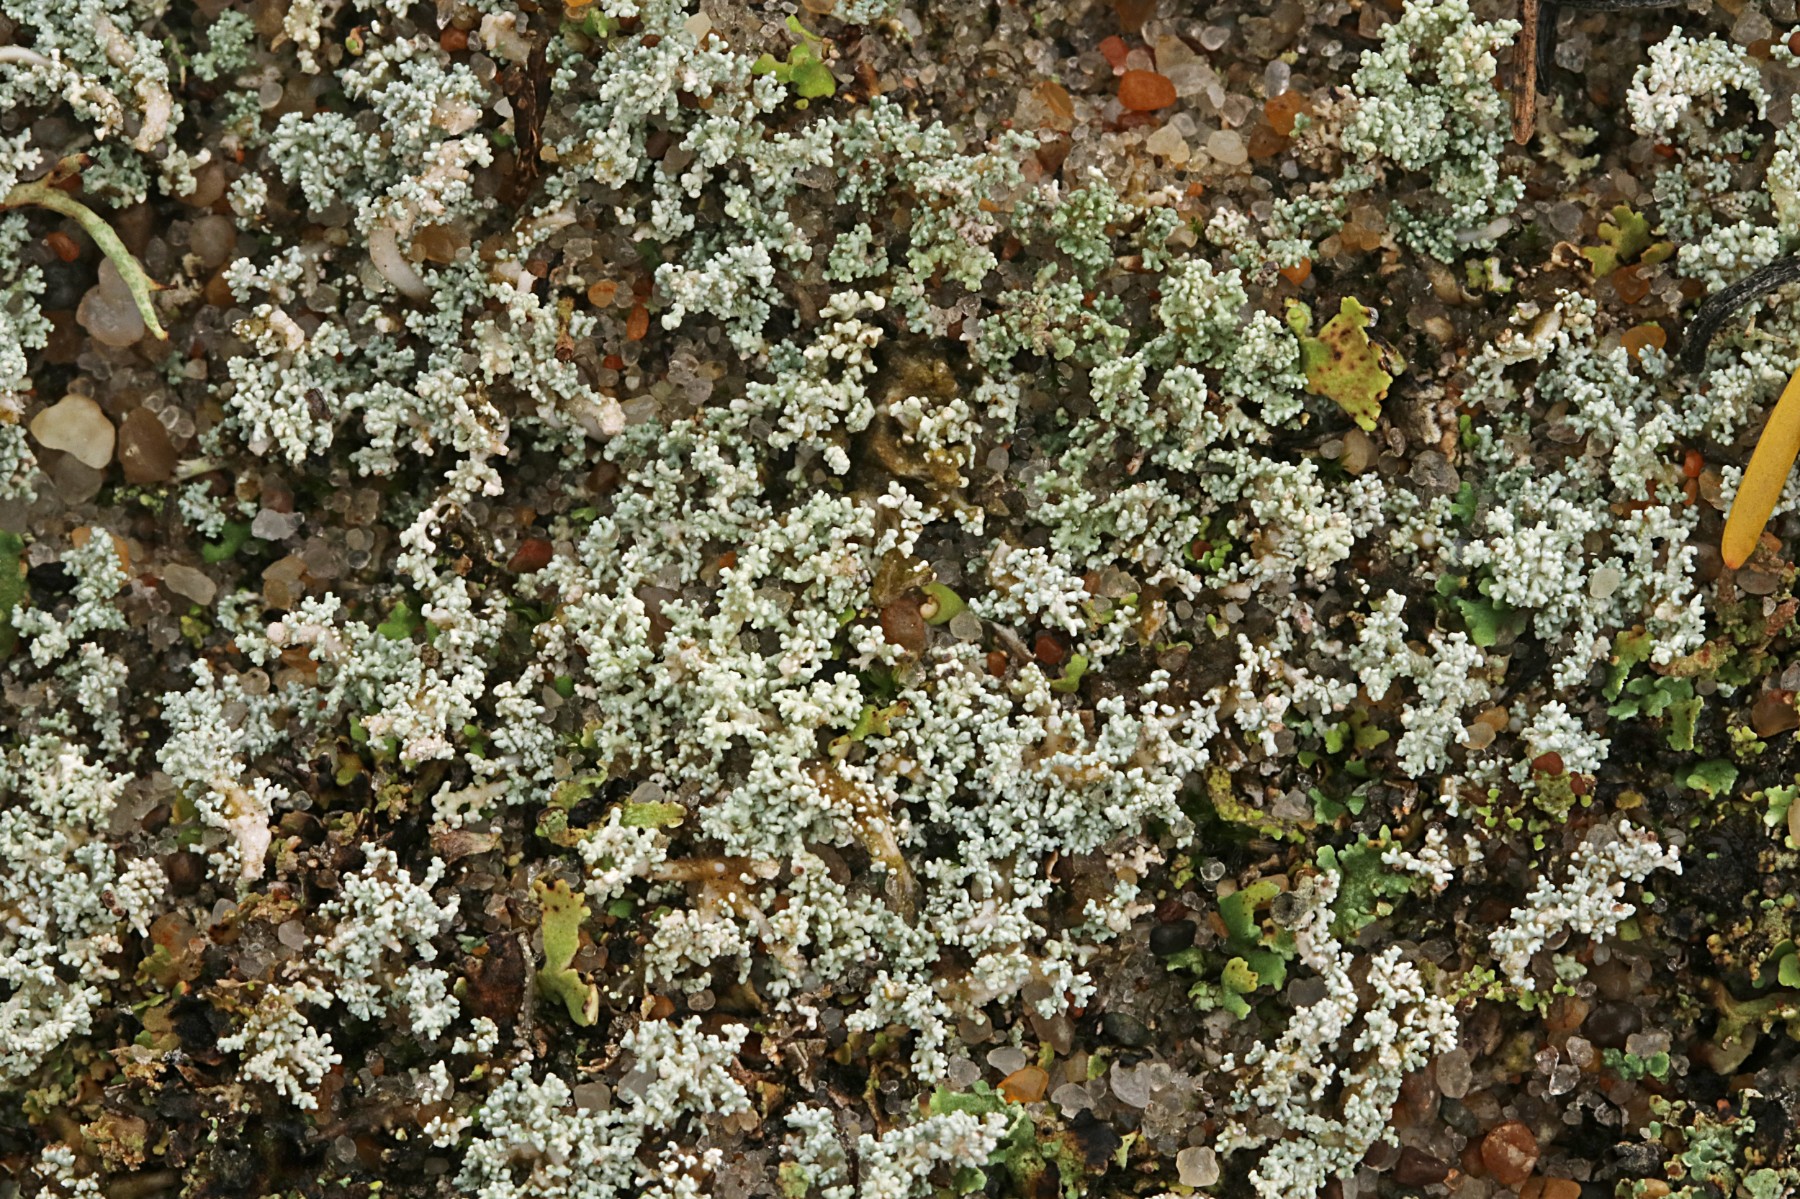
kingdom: Fungi
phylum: Ascomycota
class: Lecanoromycetes
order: Lecanorales
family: Stereocaulaceae
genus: Stereocaulon
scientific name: Stereocaulon condensatum
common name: lav korallav
